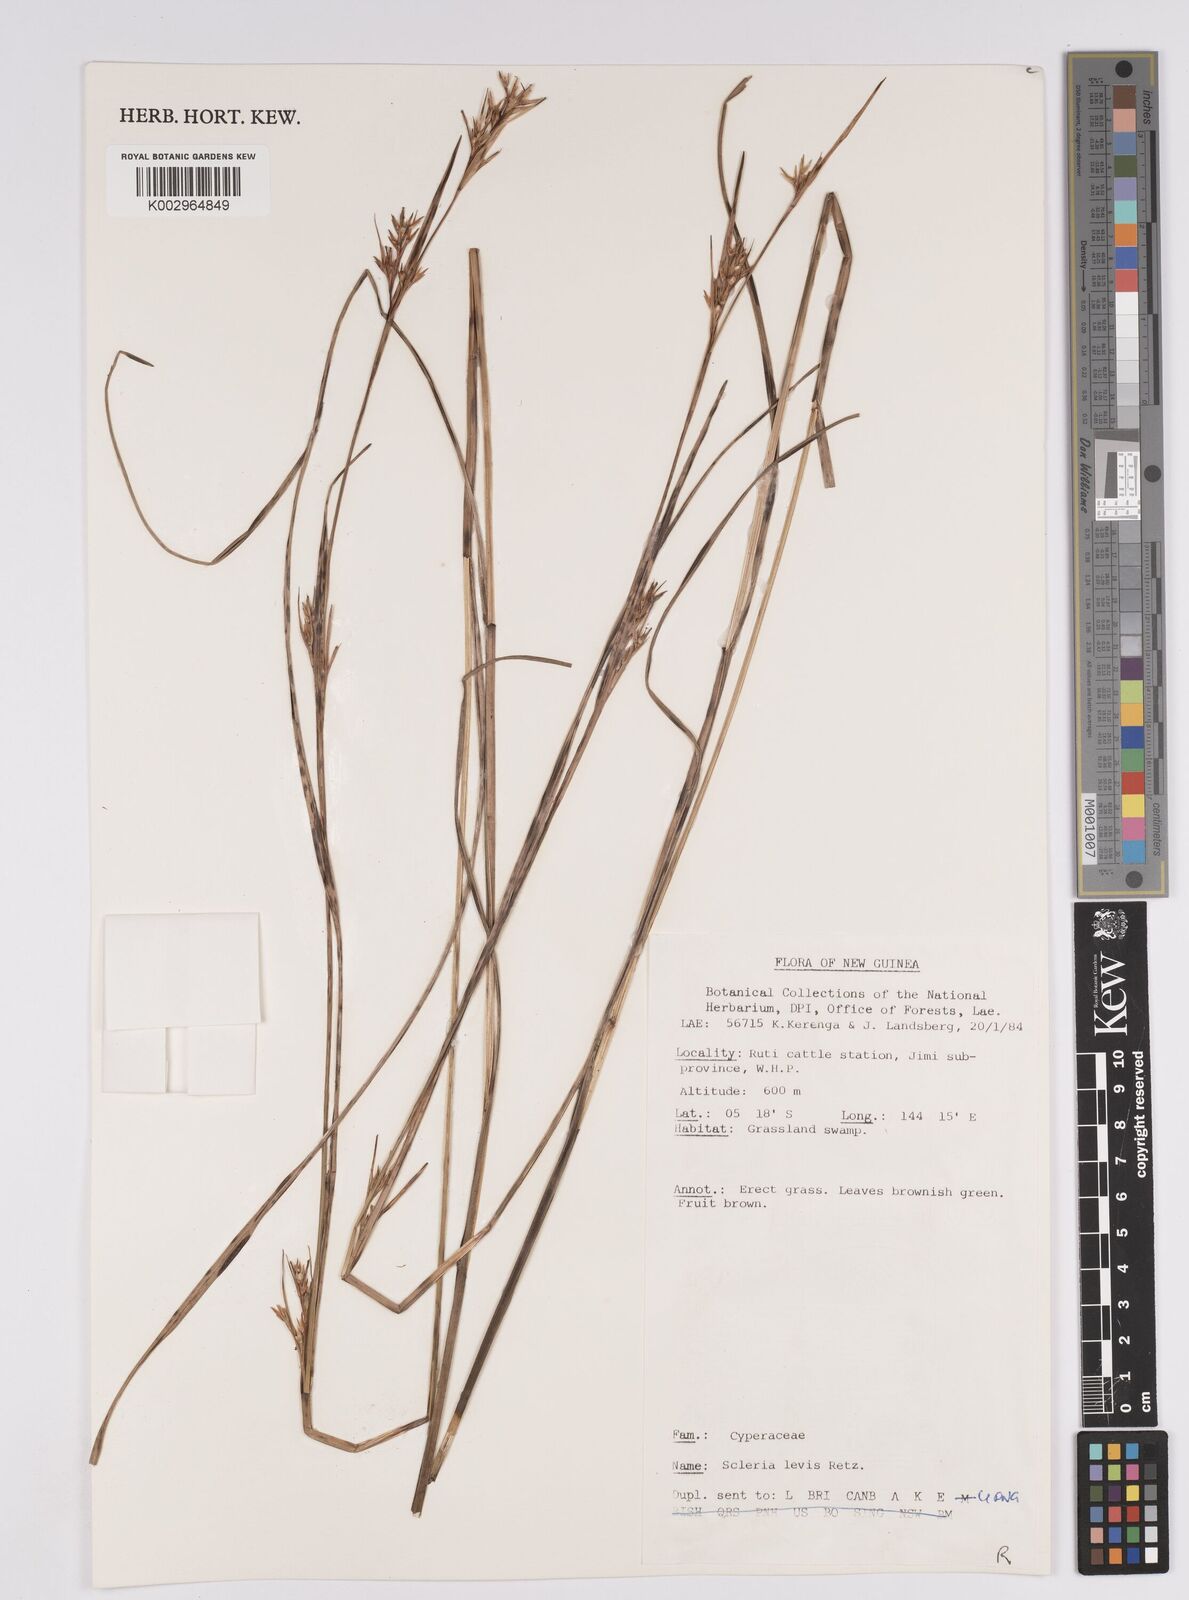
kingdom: Plantae
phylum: Tracheophyta
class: Liliopsida
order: Poales
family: Cyperaceae
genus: Scleria
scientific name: Scleria
